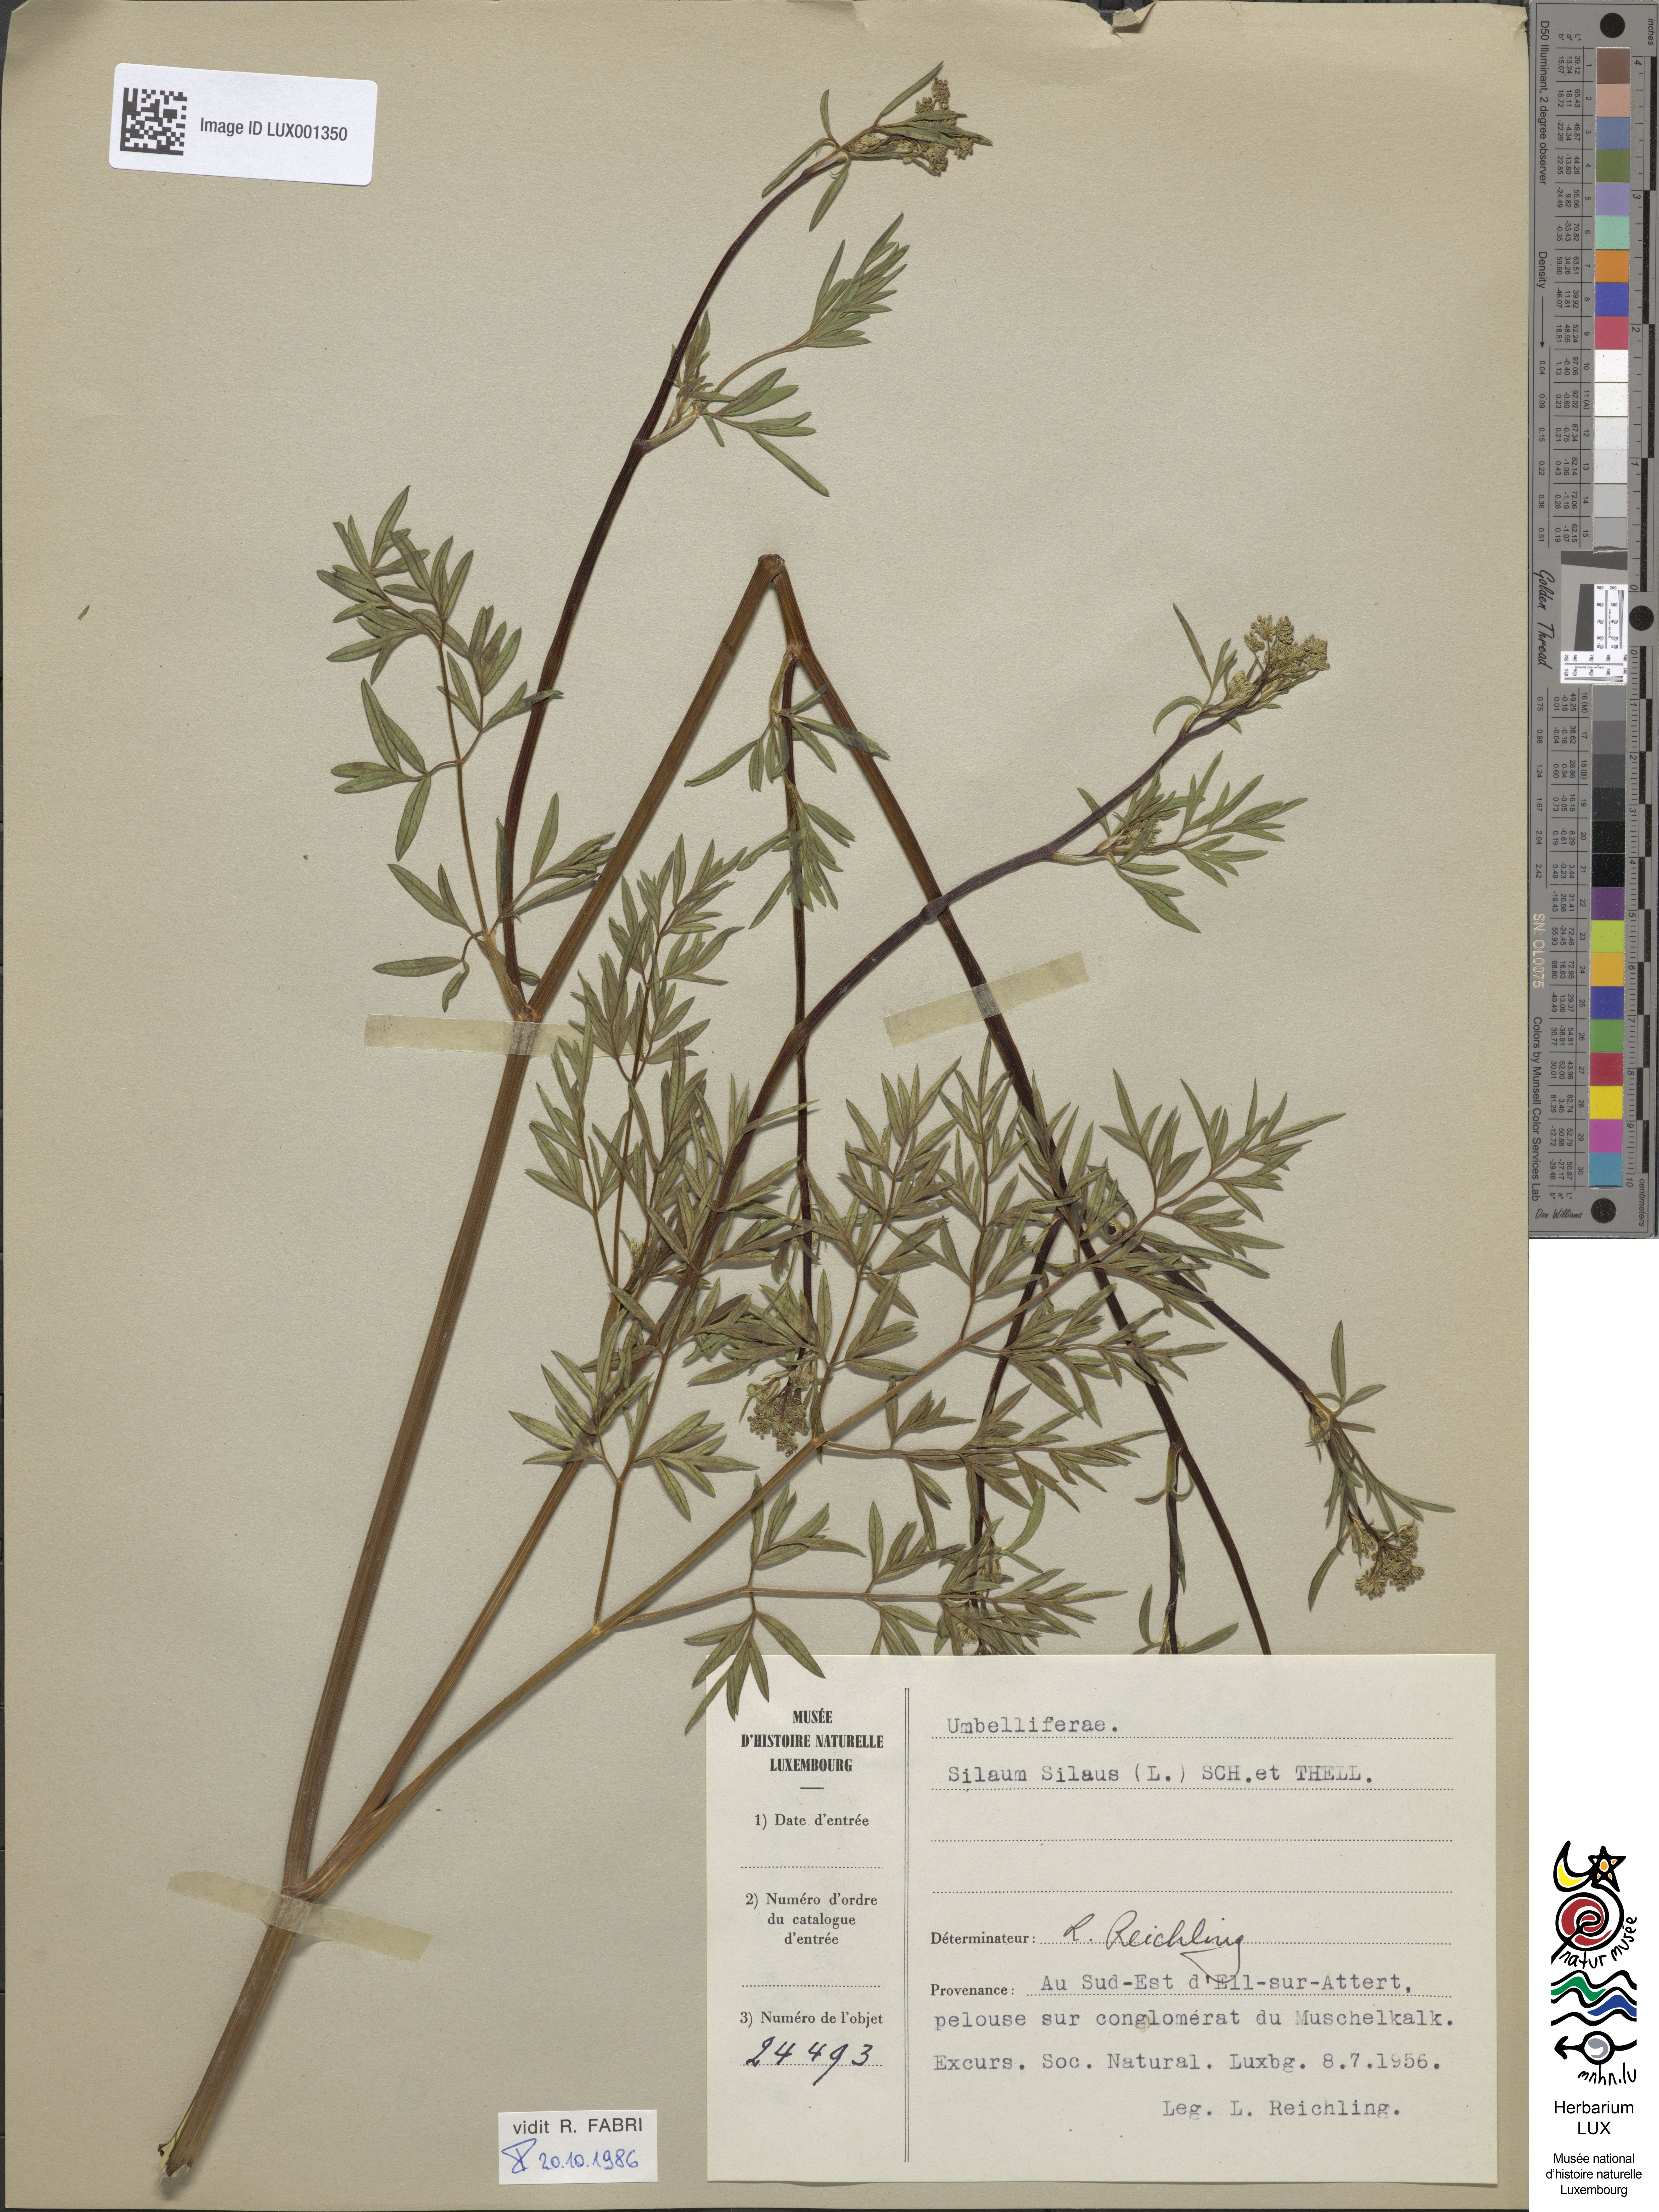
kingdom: Plantae
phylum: Tracheophyta
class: Magnoliopsida
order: Apiales
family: Apiaceae
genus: Silaum
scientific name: Silaum silaus
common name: Pepper-saxifrage
